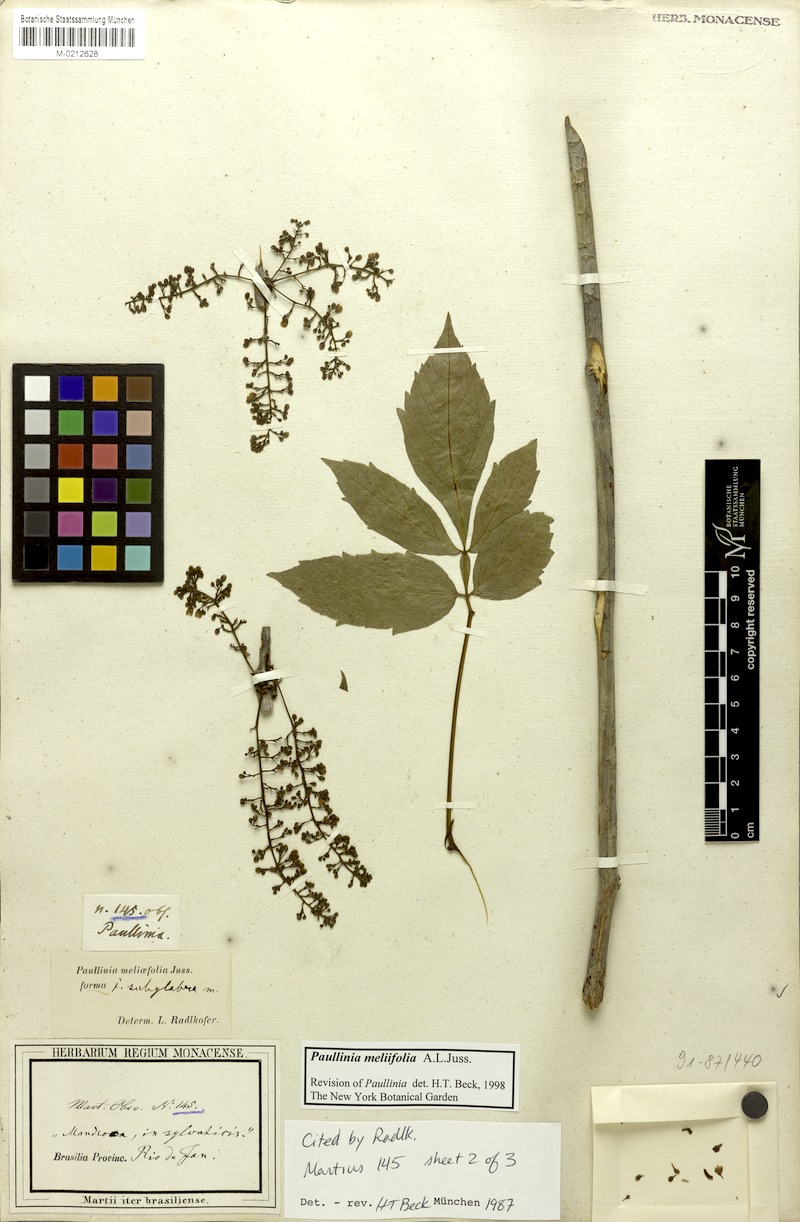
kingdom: Plantae
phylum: Tracheophyta
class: Magnoliopsida
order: Sapindales
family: Sapindaceae
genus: Paullinia
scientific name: Paullinia meliifolia
